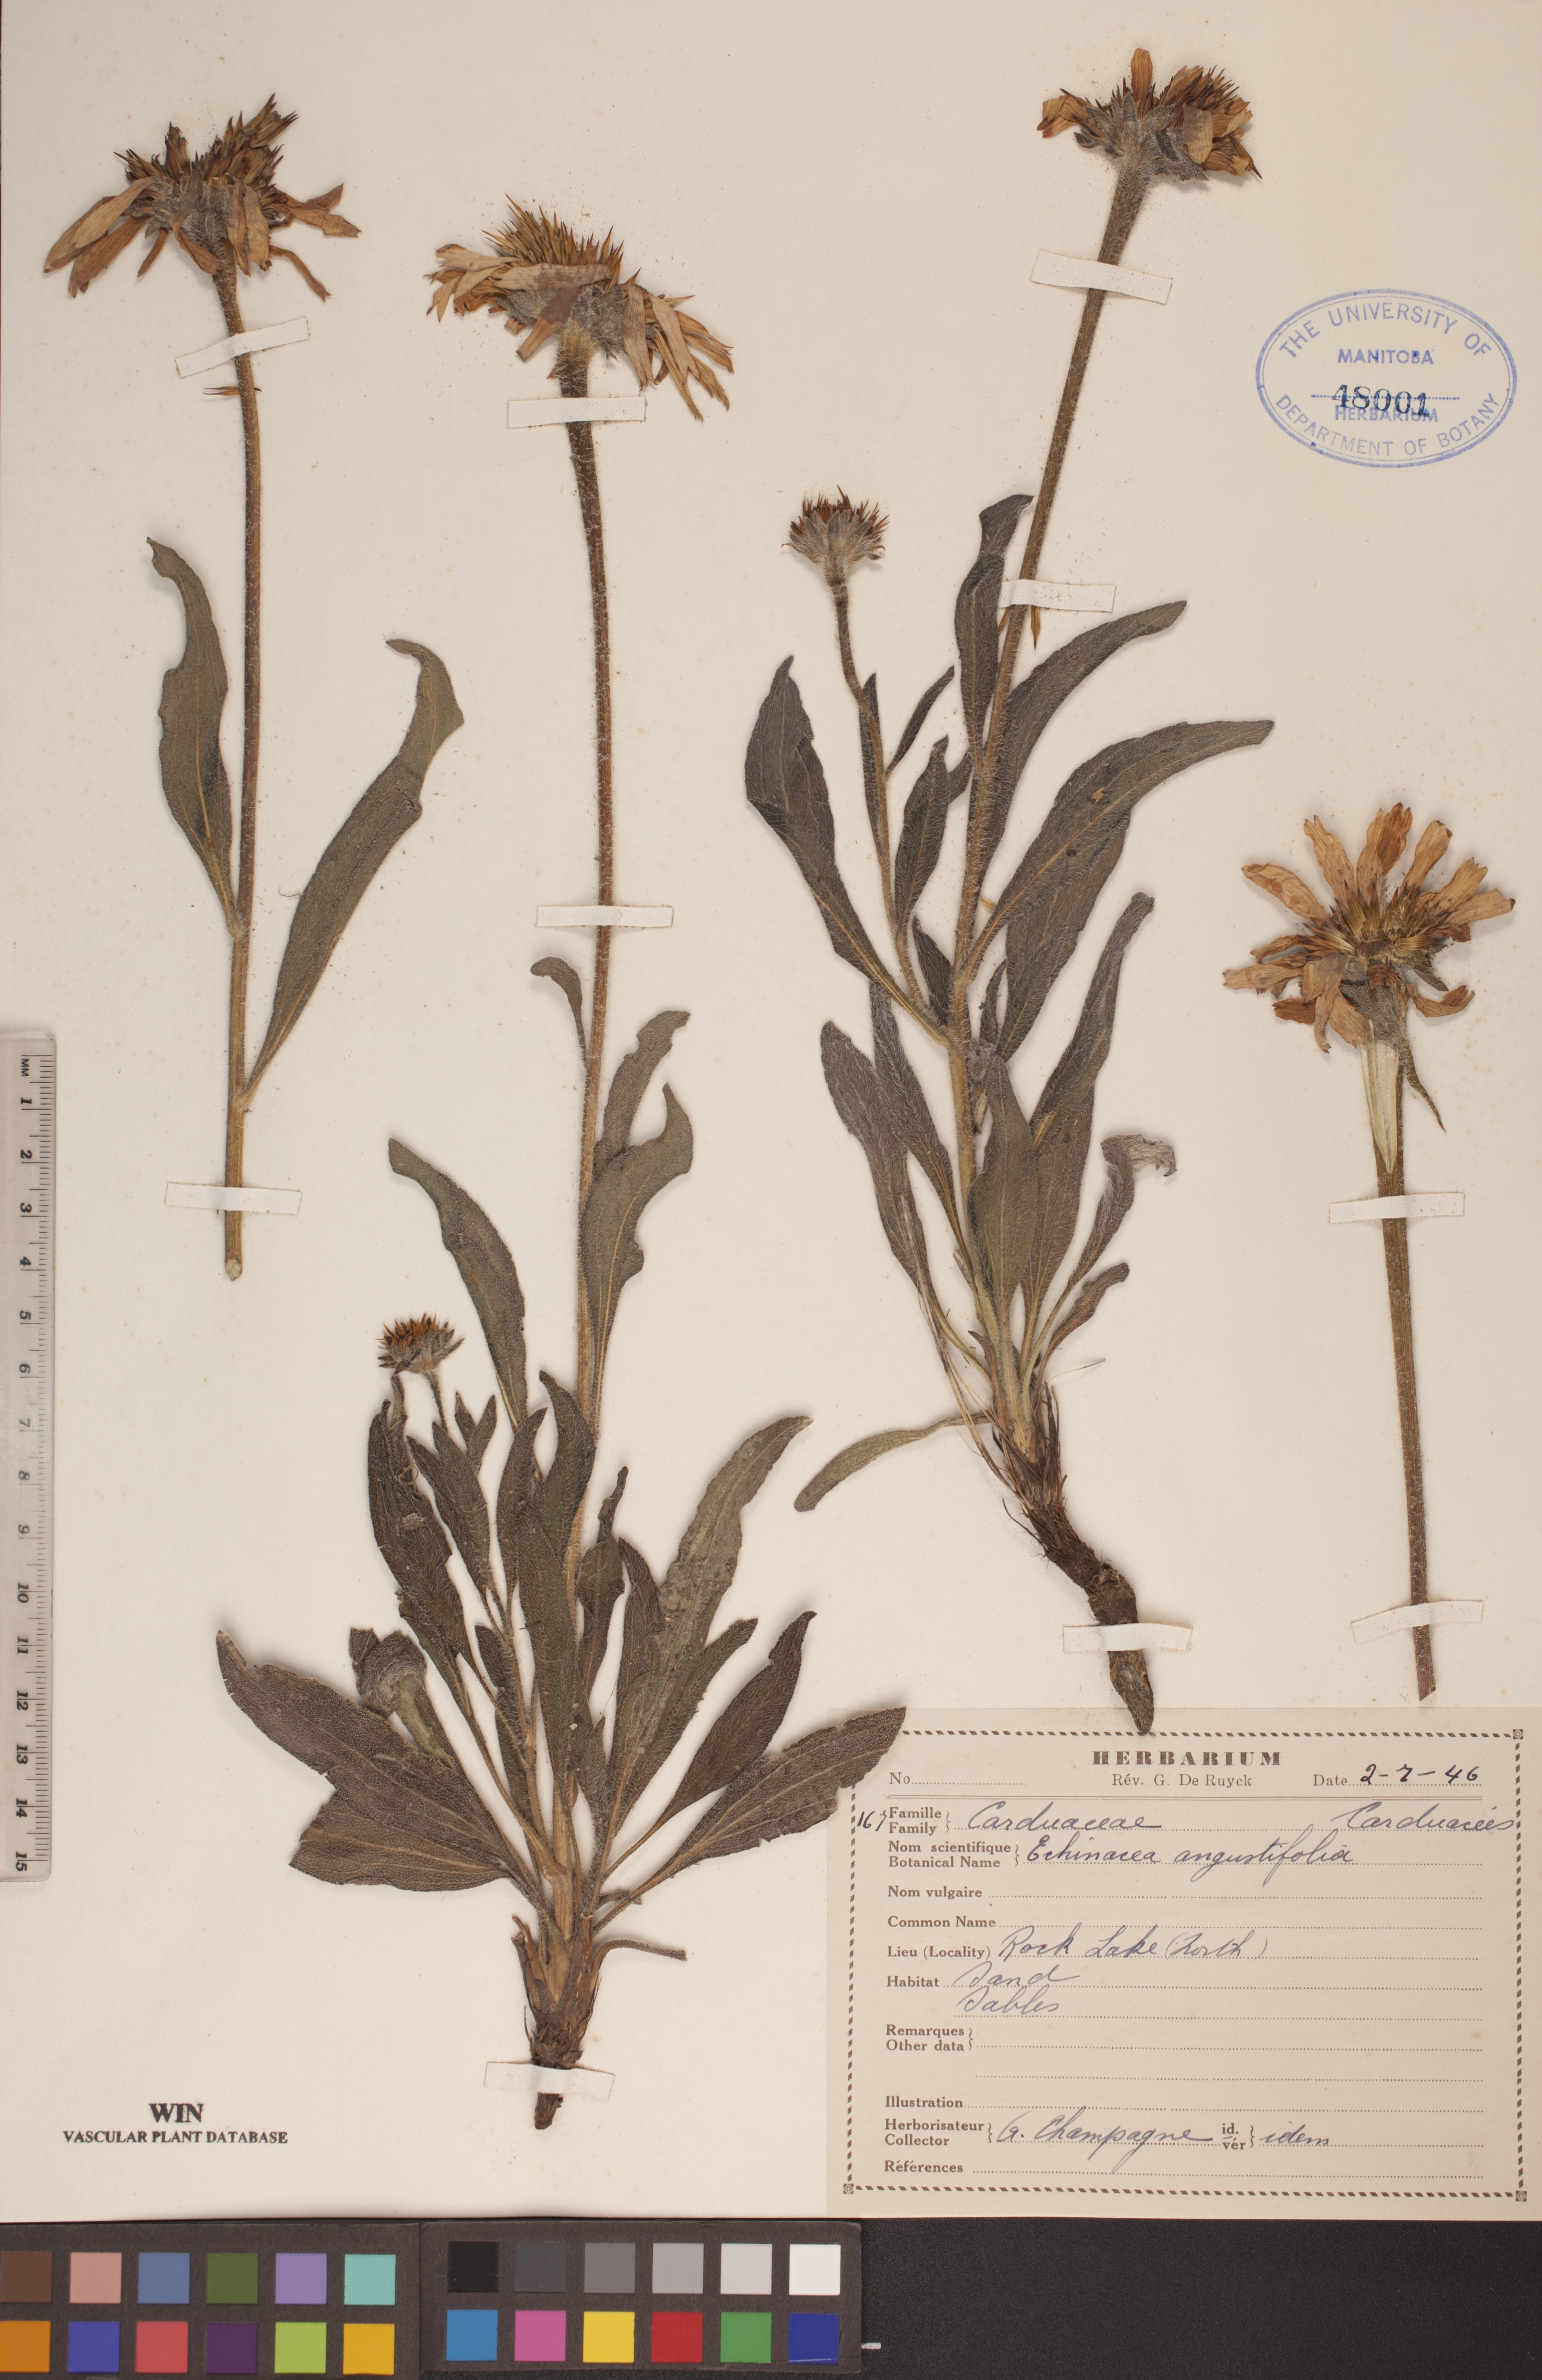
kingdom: Plantae
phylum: Tracheophyta
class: Magnoliopsida
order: Asterales
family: Asteraceae
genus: Echinacea
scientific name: Echinacea angustifolia
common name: Black-sampson echinacea
